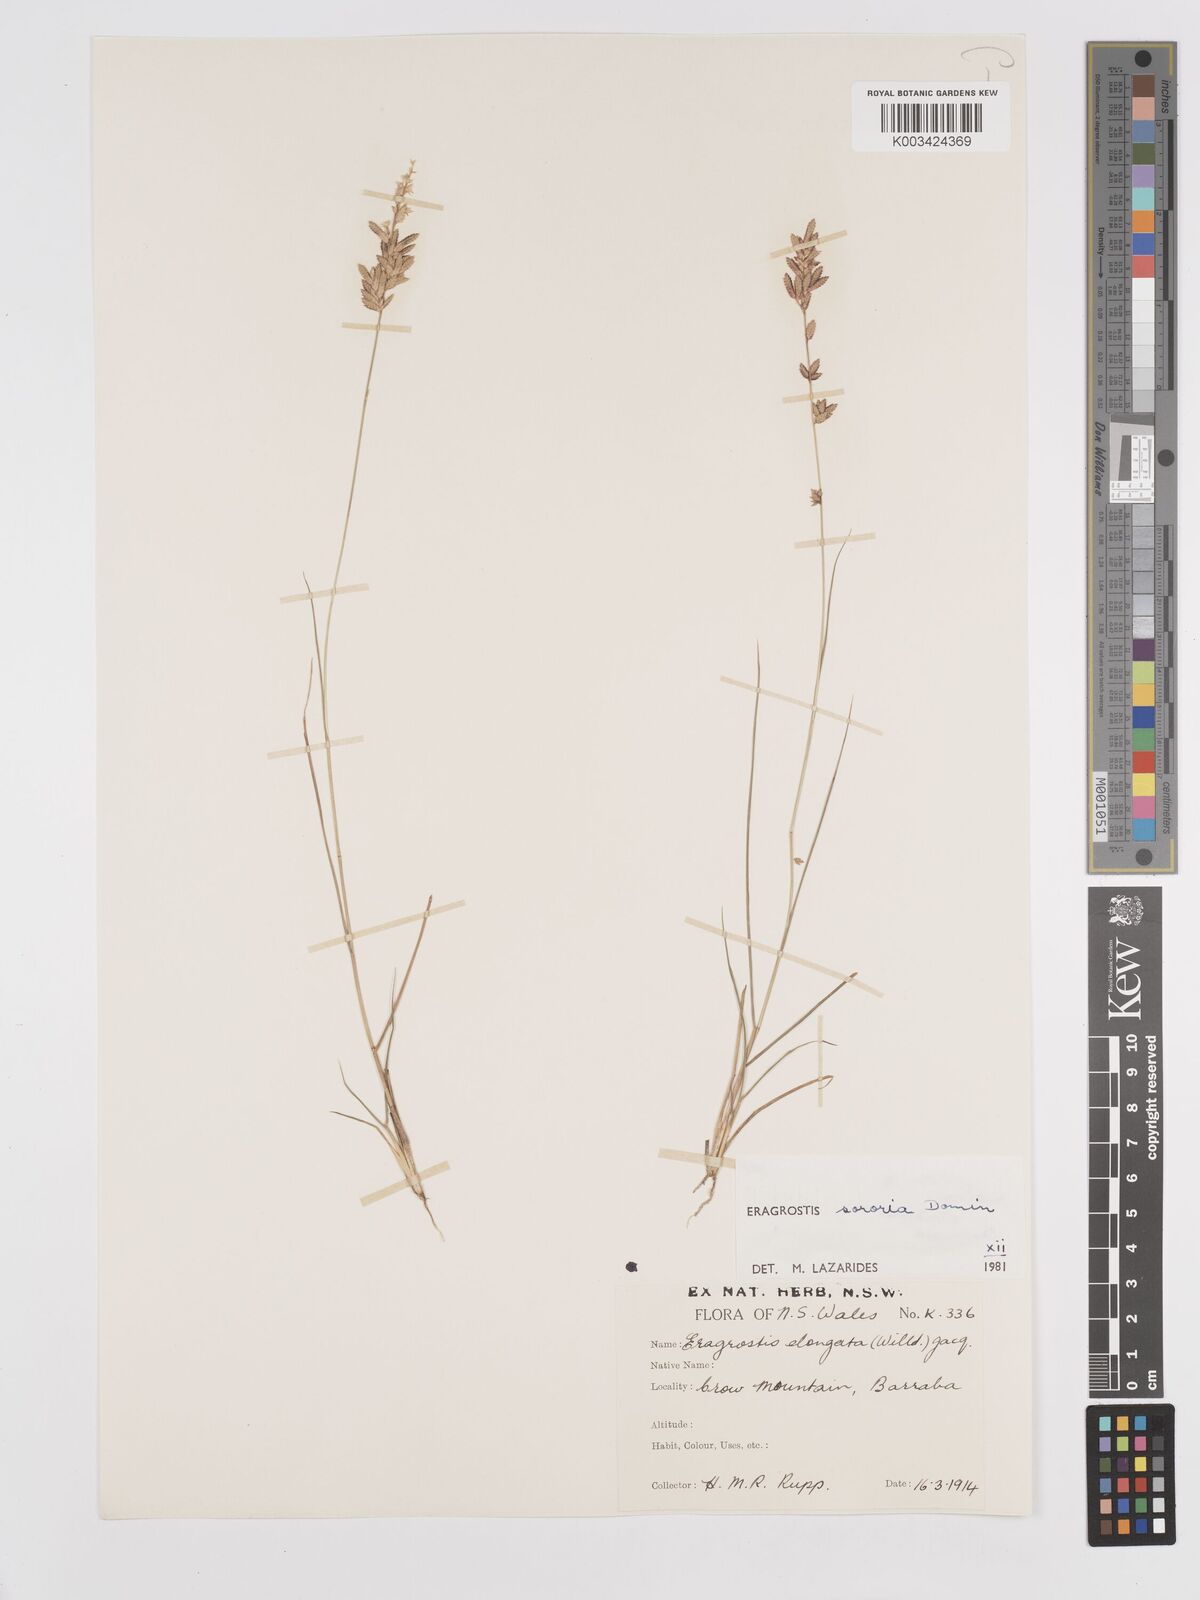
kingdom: Plantae
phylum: Tracheophyta
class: Liliopsida
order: Poales
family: Poaceae
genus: Eragrostis
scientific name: Eragrostis sororia
